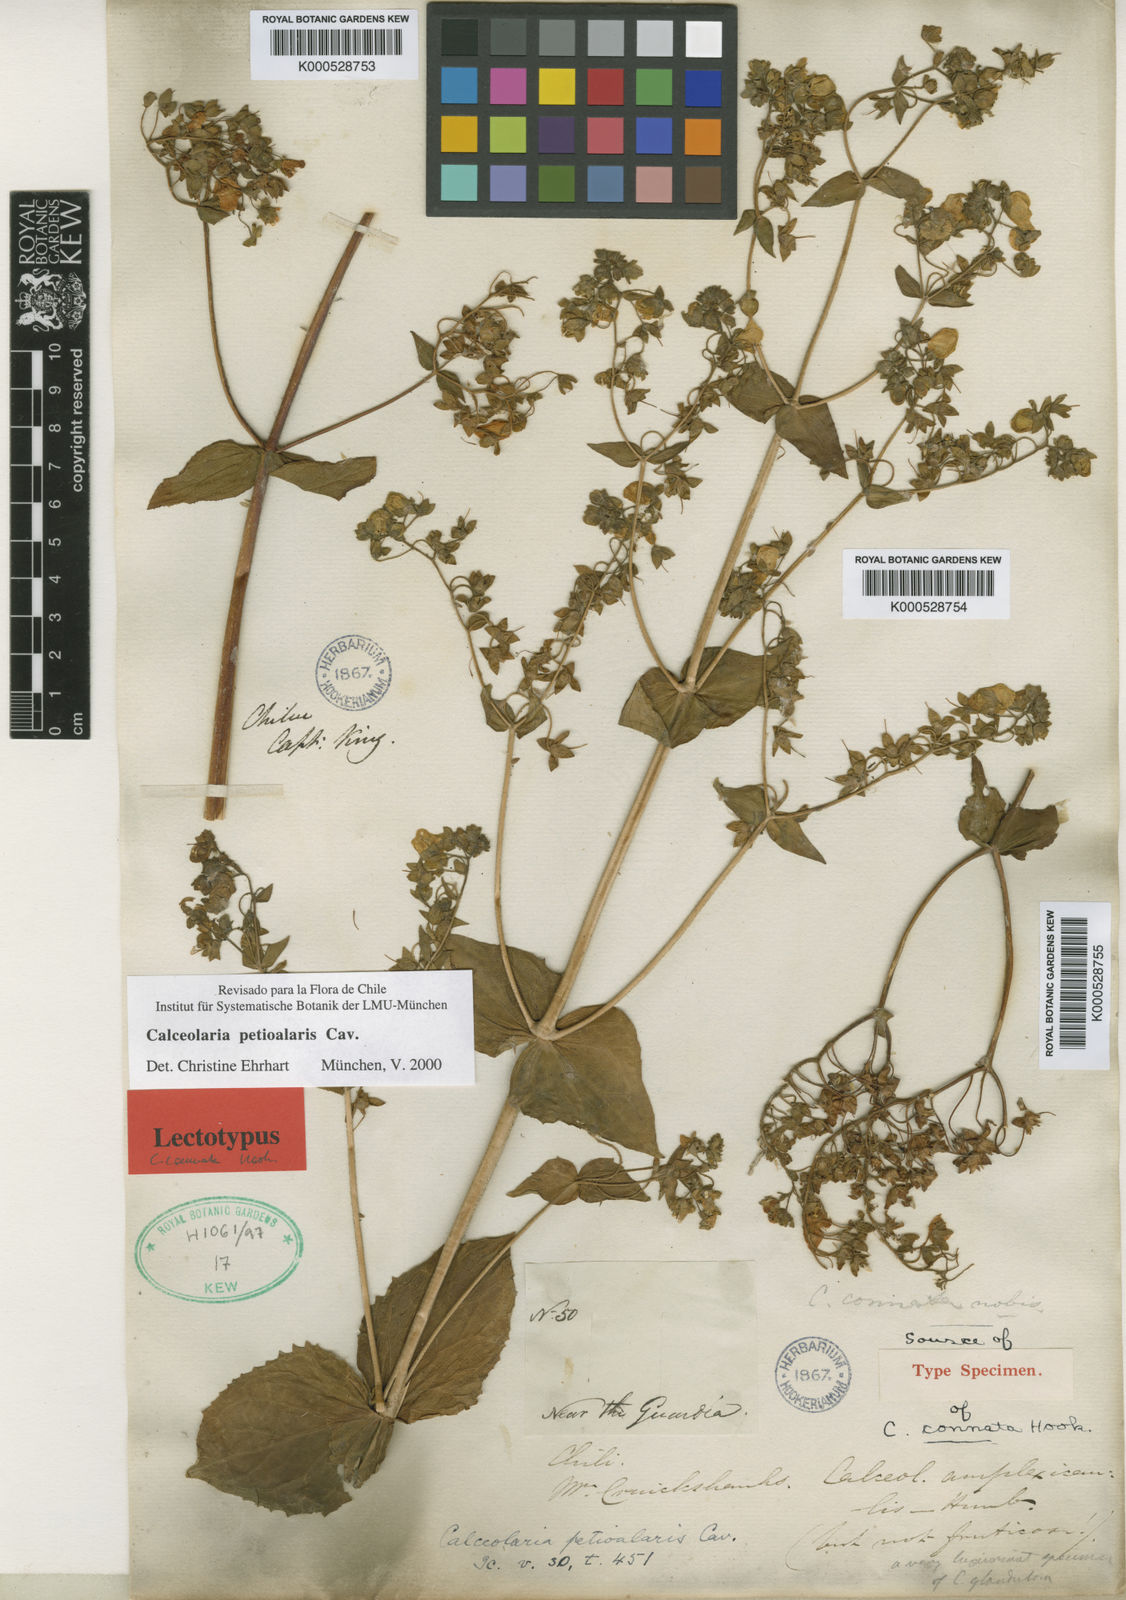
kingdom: Plantae
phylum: Tracheophyta
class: Magnoliopsida
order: Lamiales
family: Calceolariaceae
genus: Calceolaria
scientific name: Calceolaria
